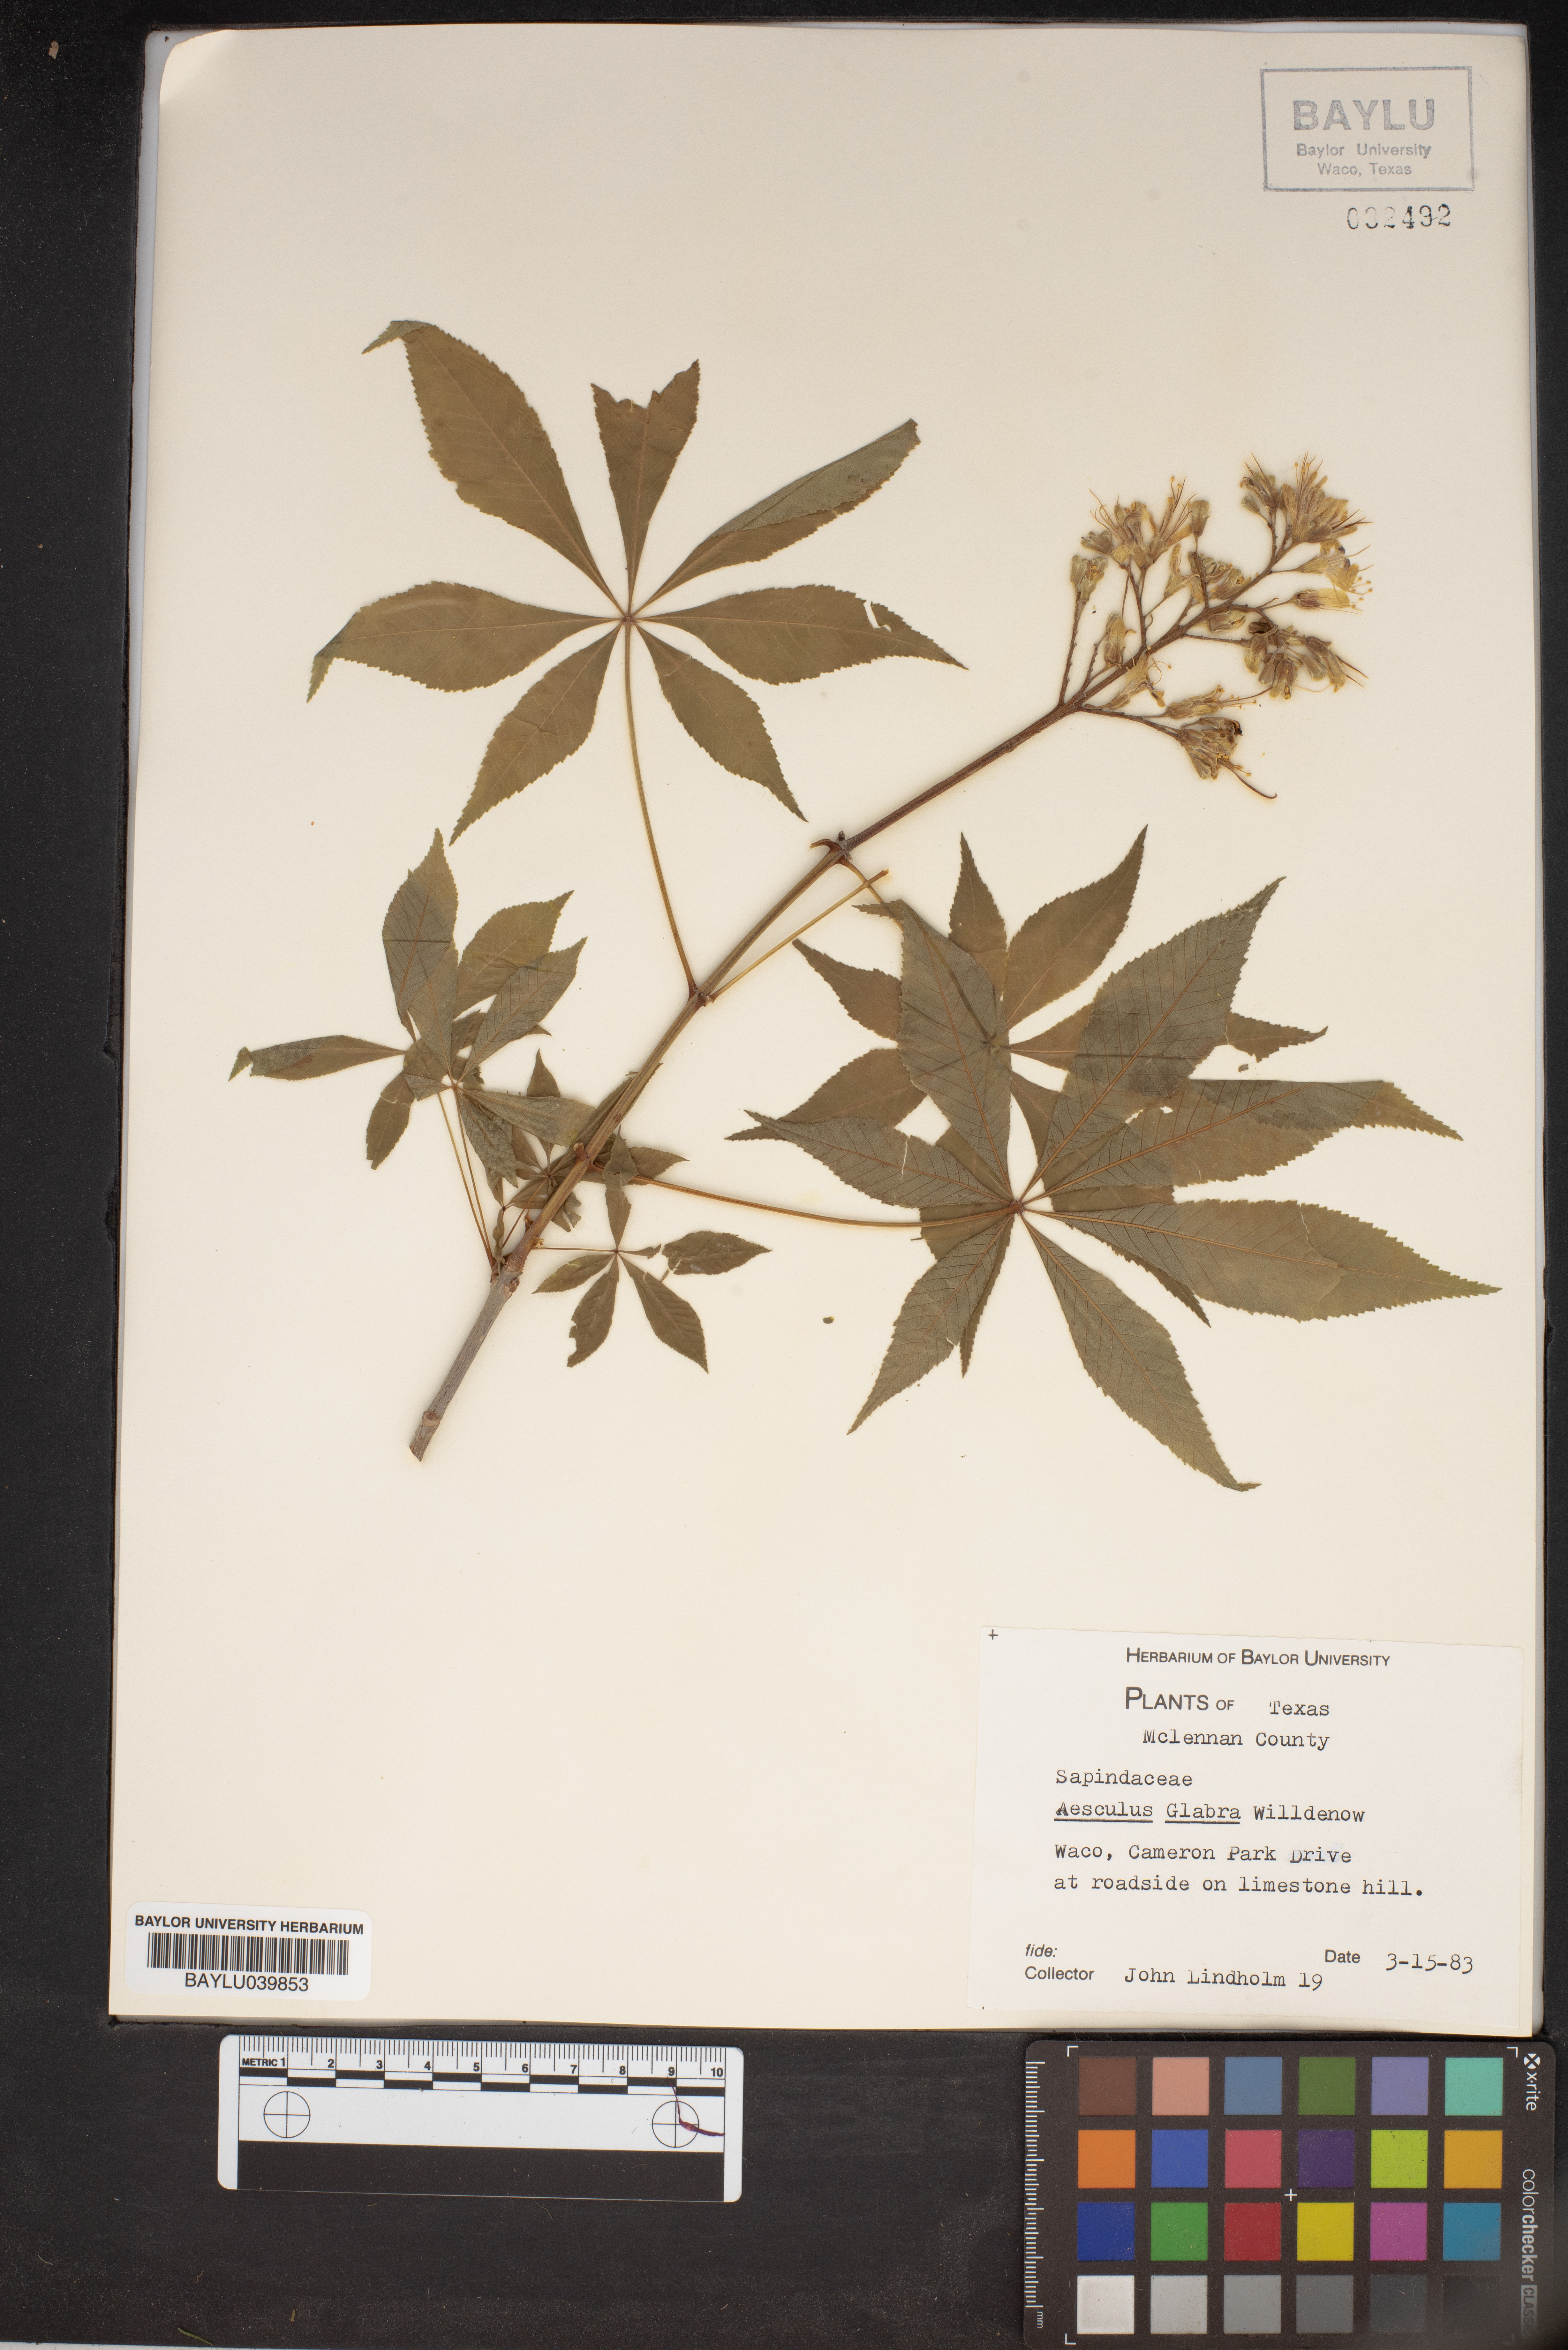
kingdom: Plantae
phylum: Tracheophyta
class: Magnoliopsida
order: Sapindales
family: Sapindaceae
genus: Aesculus
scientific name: Aesculus glabra
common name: Ohio buckeye
